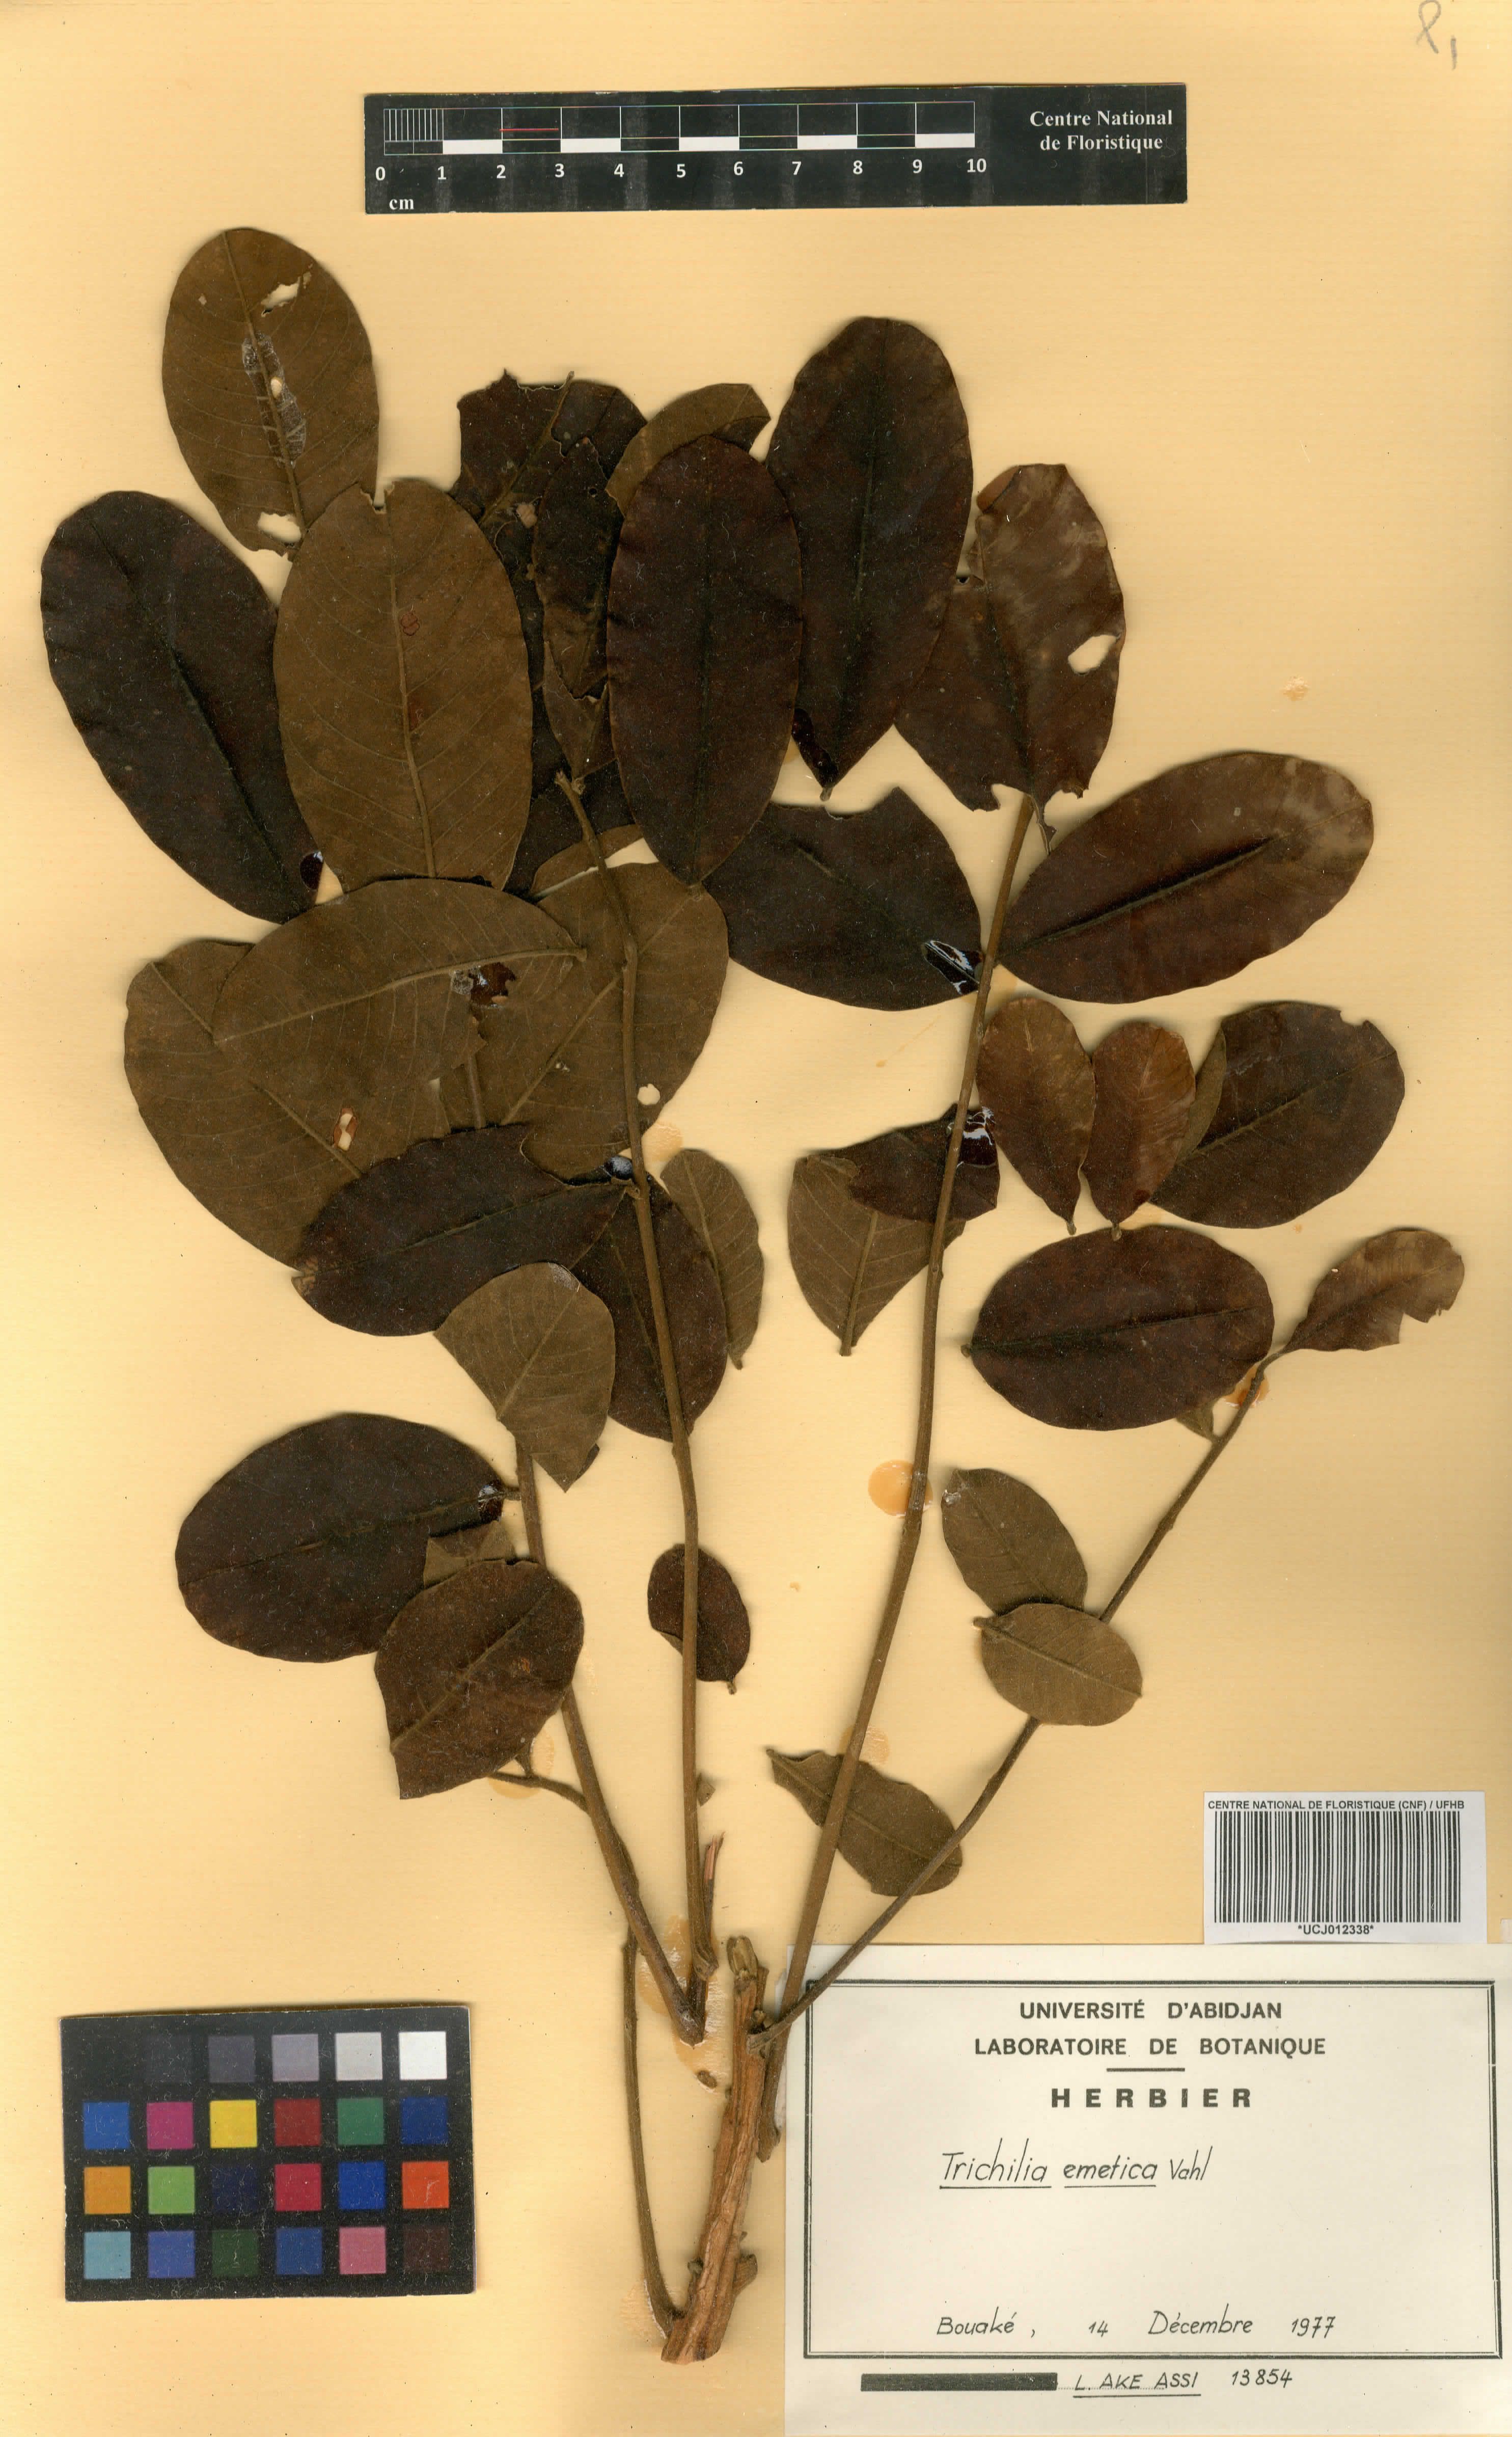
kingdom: Plantae
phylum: Tracheophyta
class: Magnoliopsida
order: Sapindales
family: Meliaceae
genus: Trichilia
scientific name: Trichilia emetica
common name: Christmas-bells
